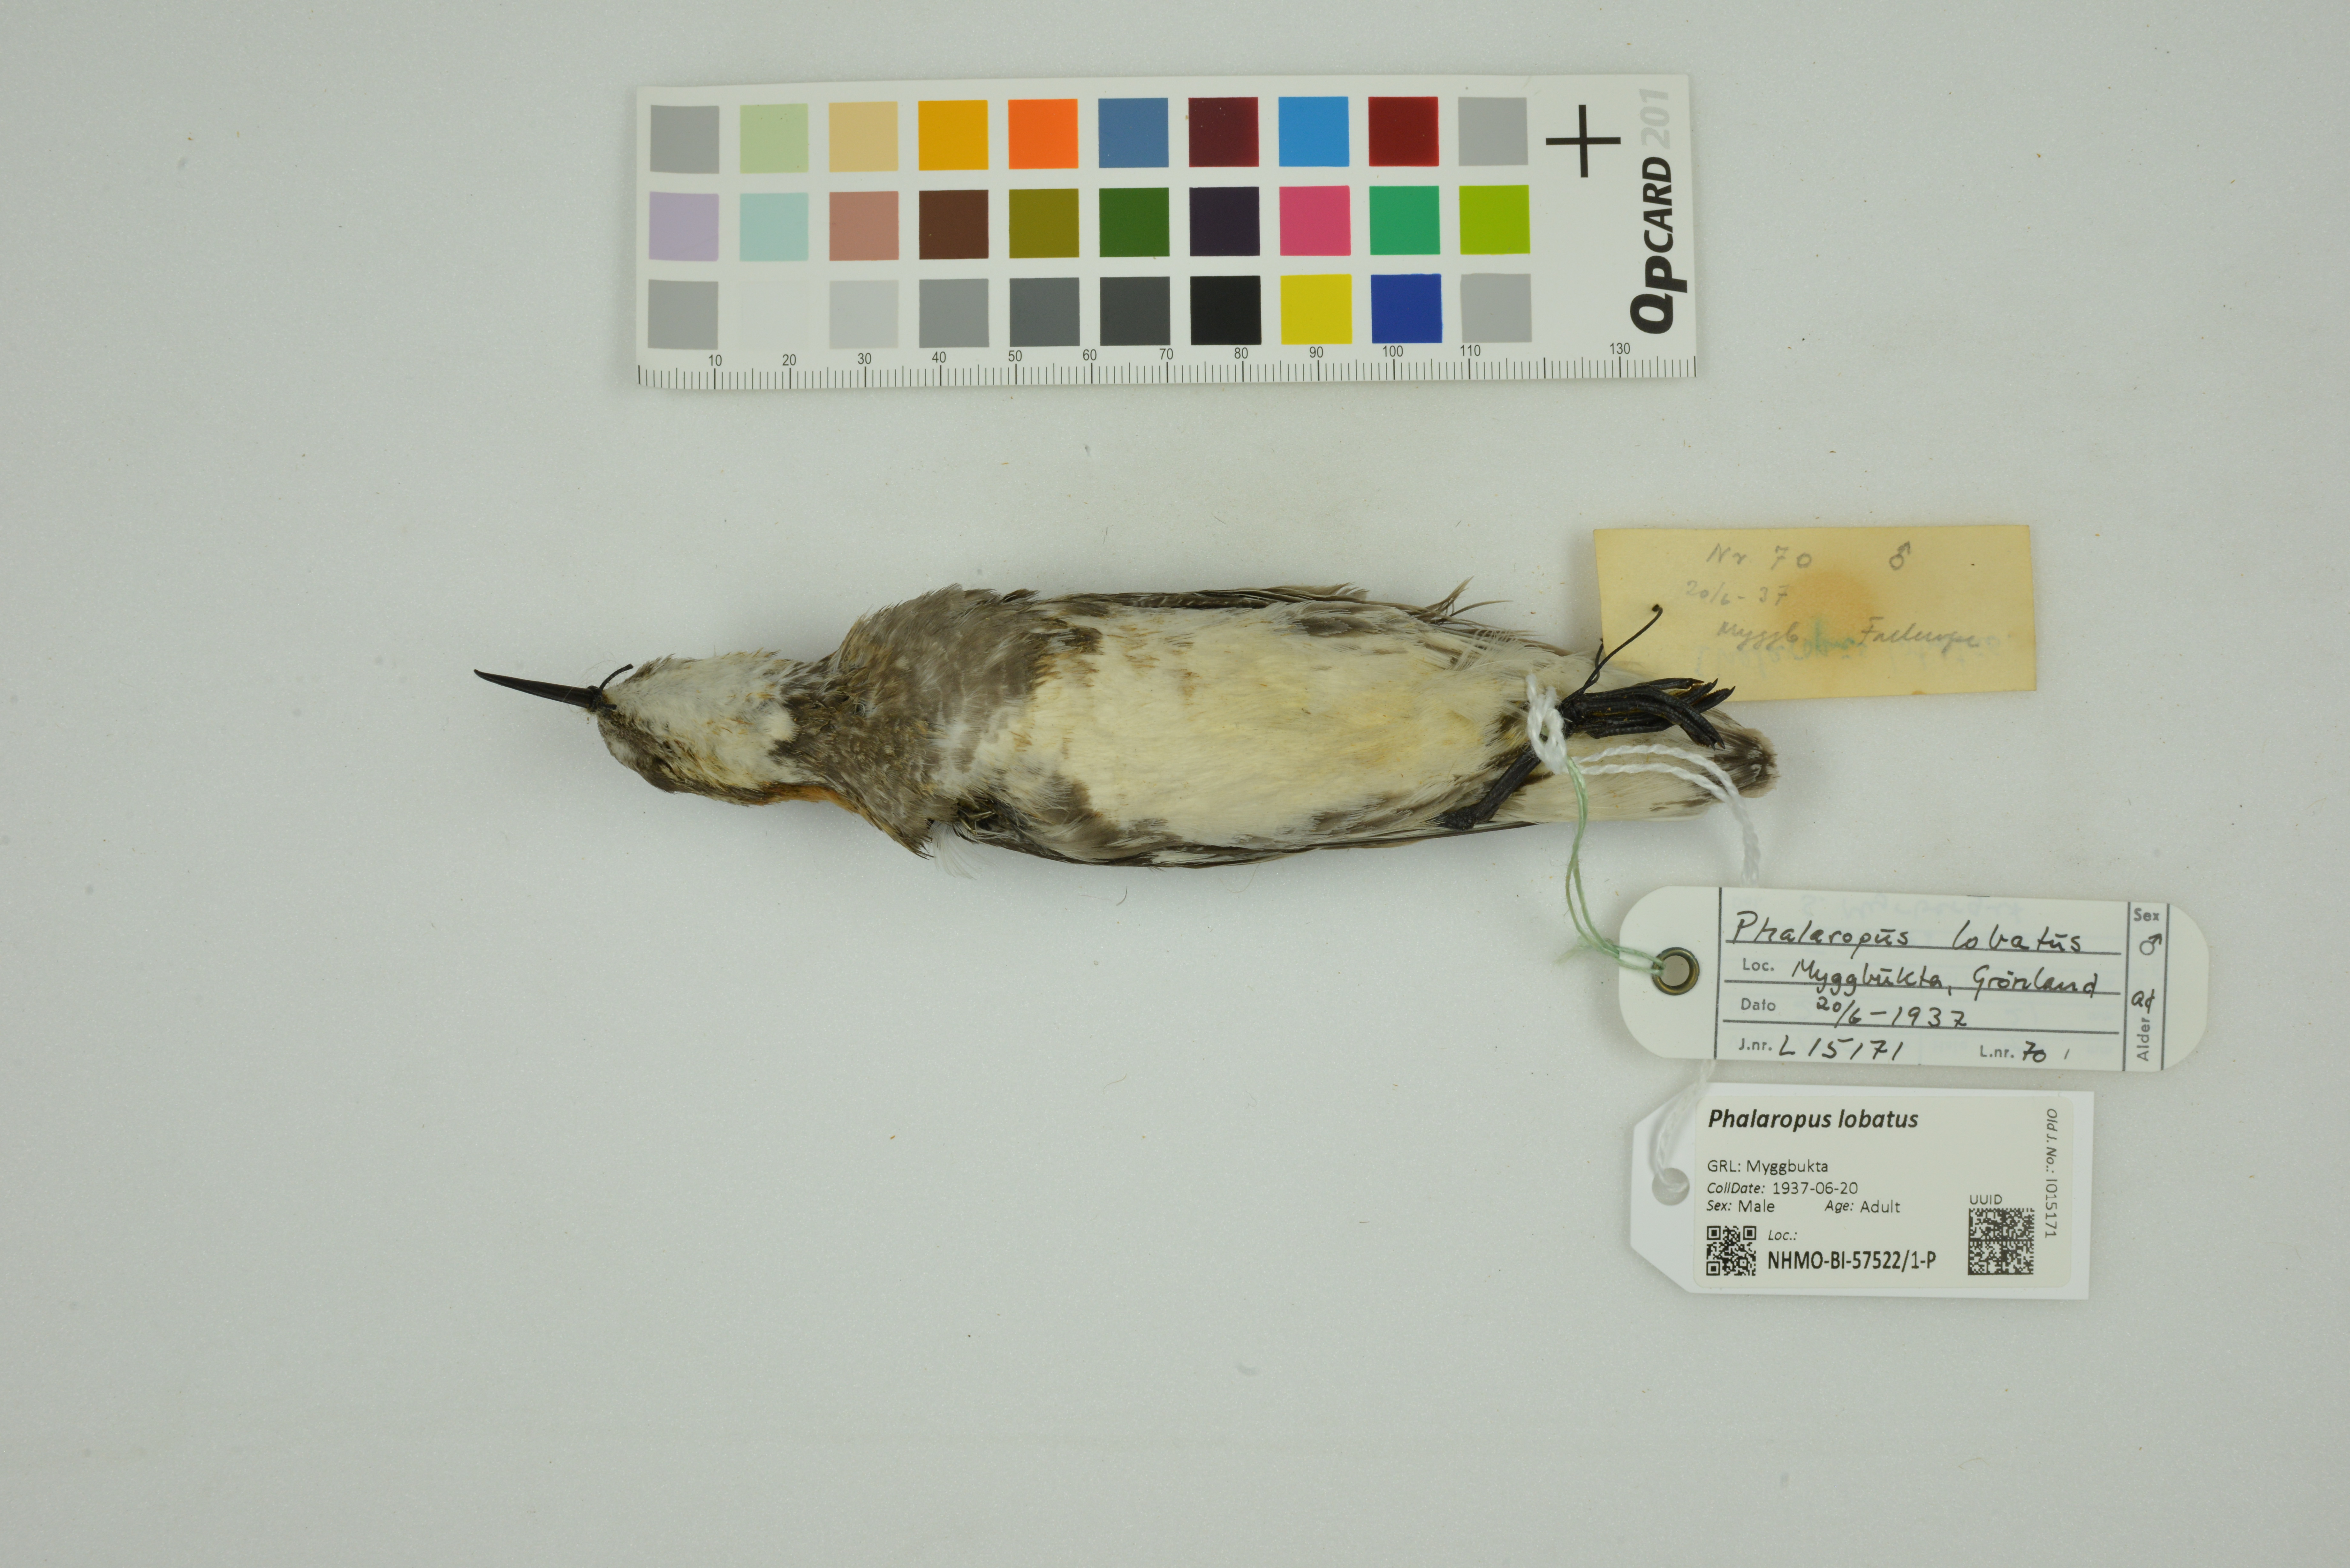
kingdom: Animalia
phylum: Chordata
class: Aves
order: Charadriiformes
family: Scolopacidae
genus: Phalaropus
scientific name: Phalaropus lobatus
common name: Red-necked phalarope
